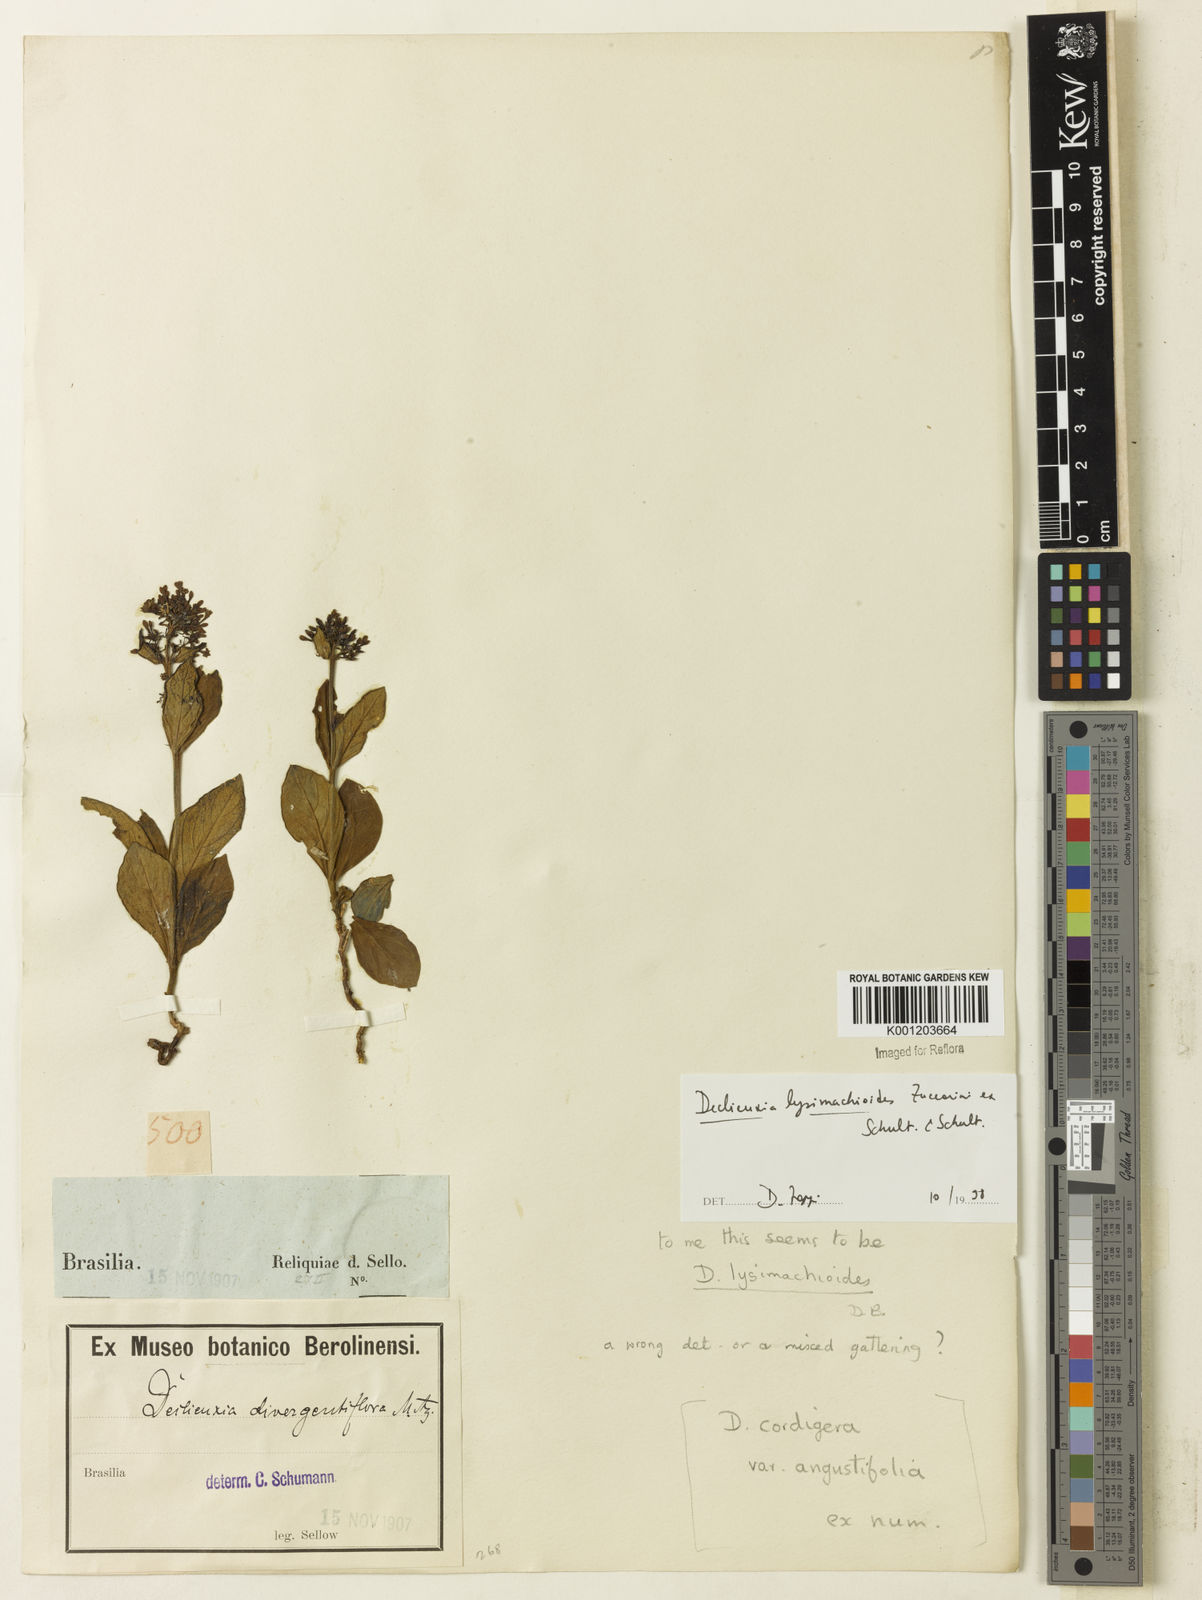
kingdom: Plantae
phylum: Tracheophyta
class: Magnoliopsida
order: Gentianales
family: Rubiaceae
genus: Declieuxia
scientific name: Declieuxia
